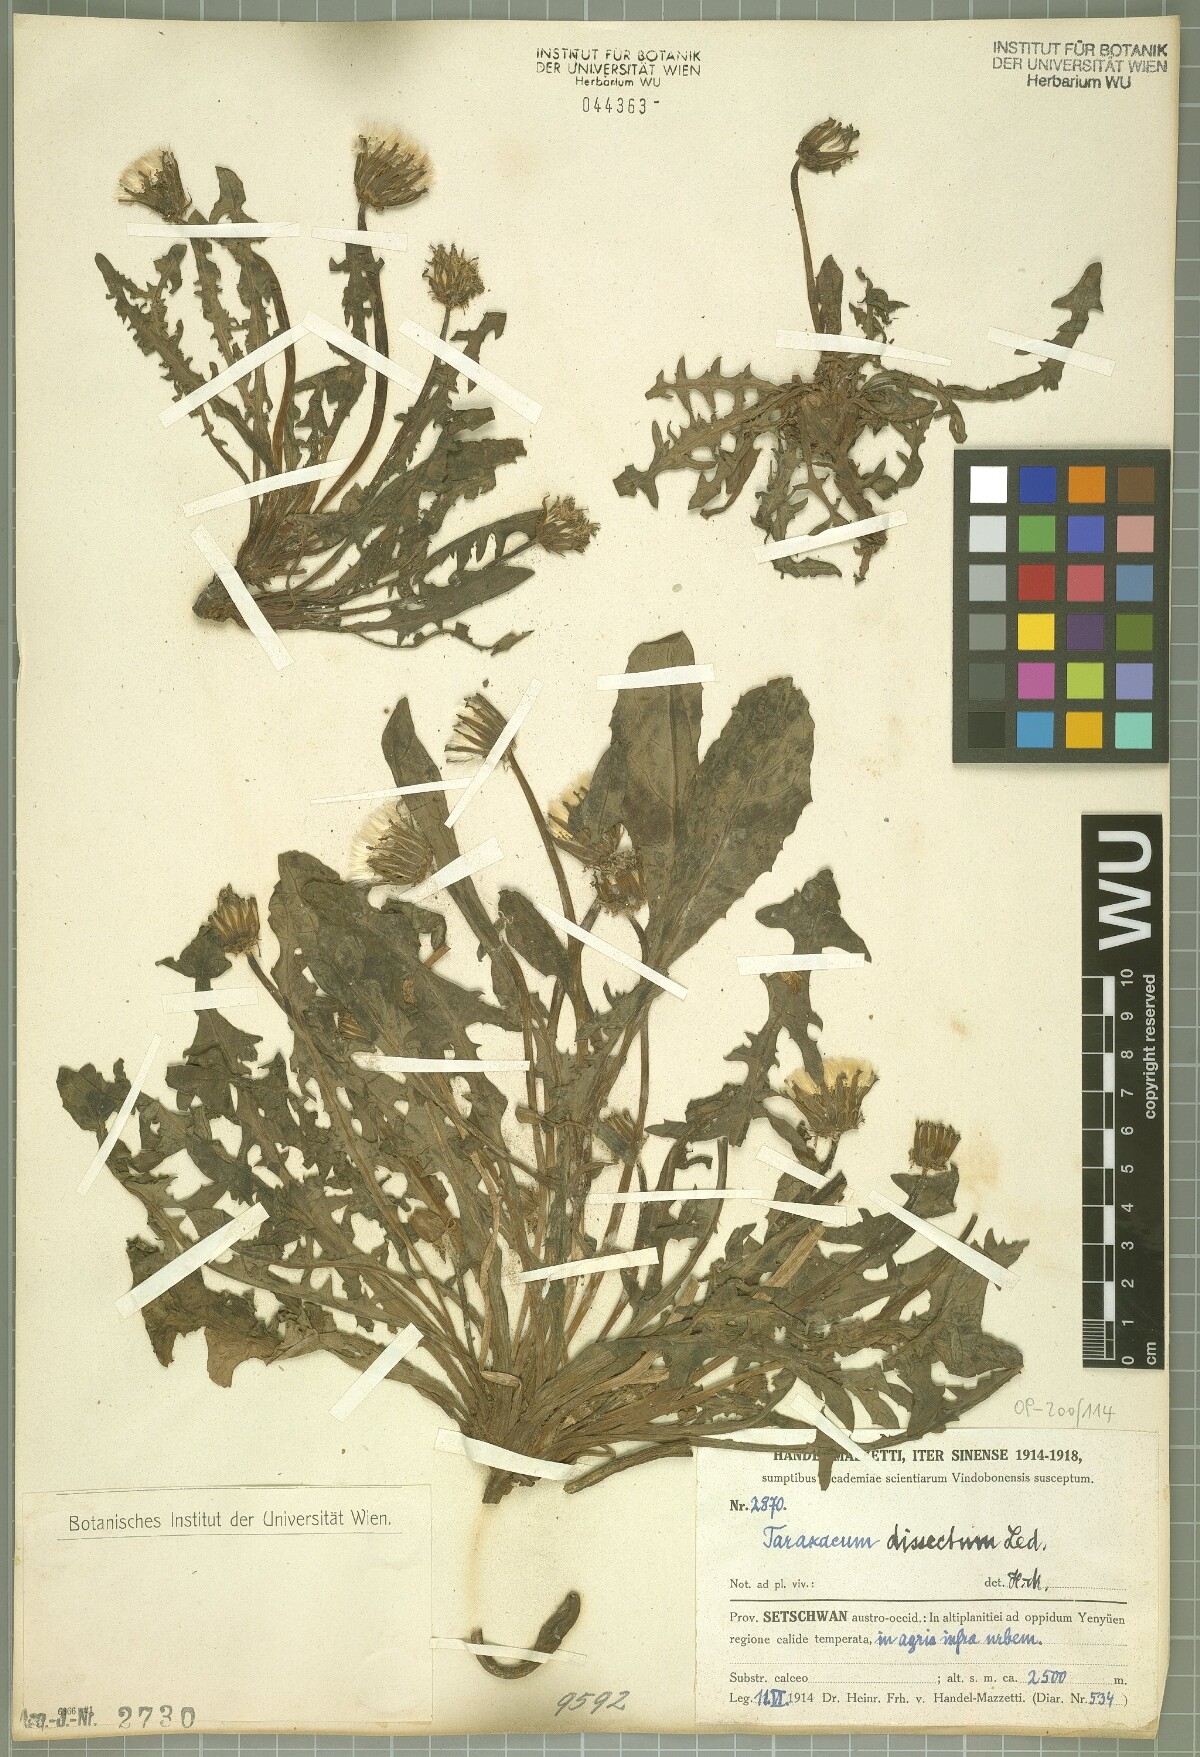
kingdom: Plantae
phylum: Tracheophyta
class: Magnoliopsida
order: Asterales
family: Asteraceae
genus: Taraxacum
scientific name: Taraxacum dissectum
